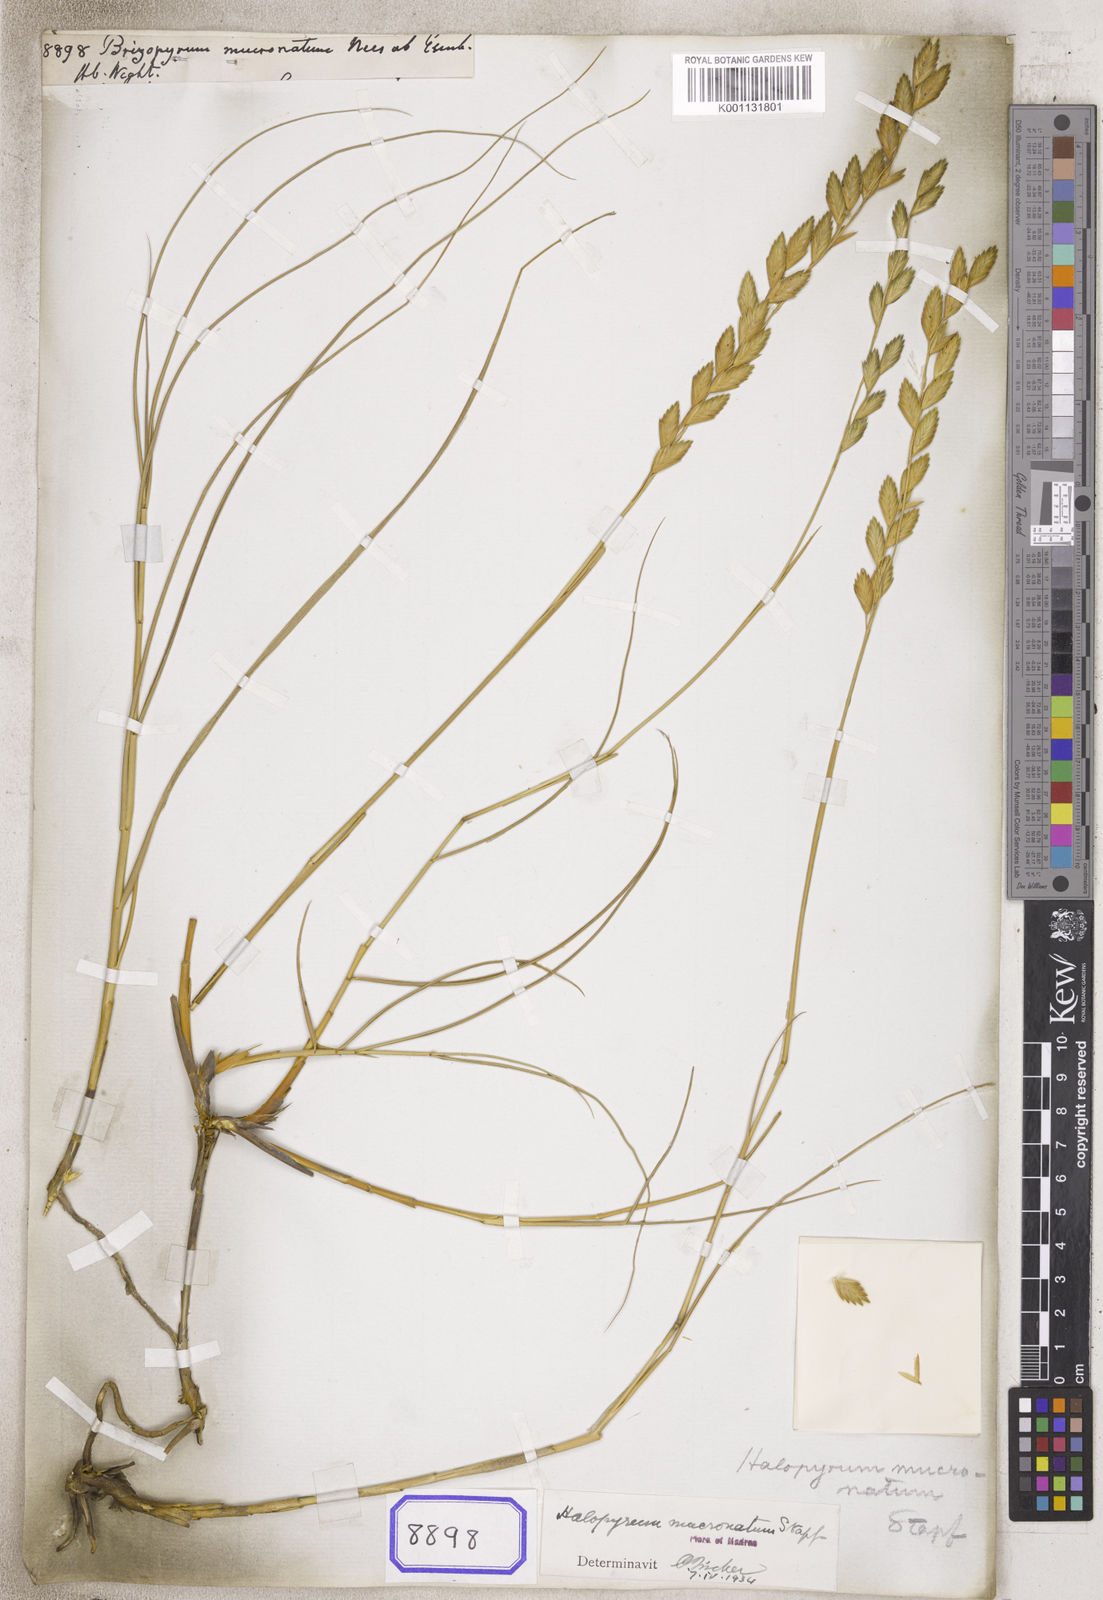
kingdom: Plantae
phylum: Tracheophyta
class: Liliopsida
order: Poales
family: Poaceae
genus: Desmazeria
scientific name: Desmazeria
